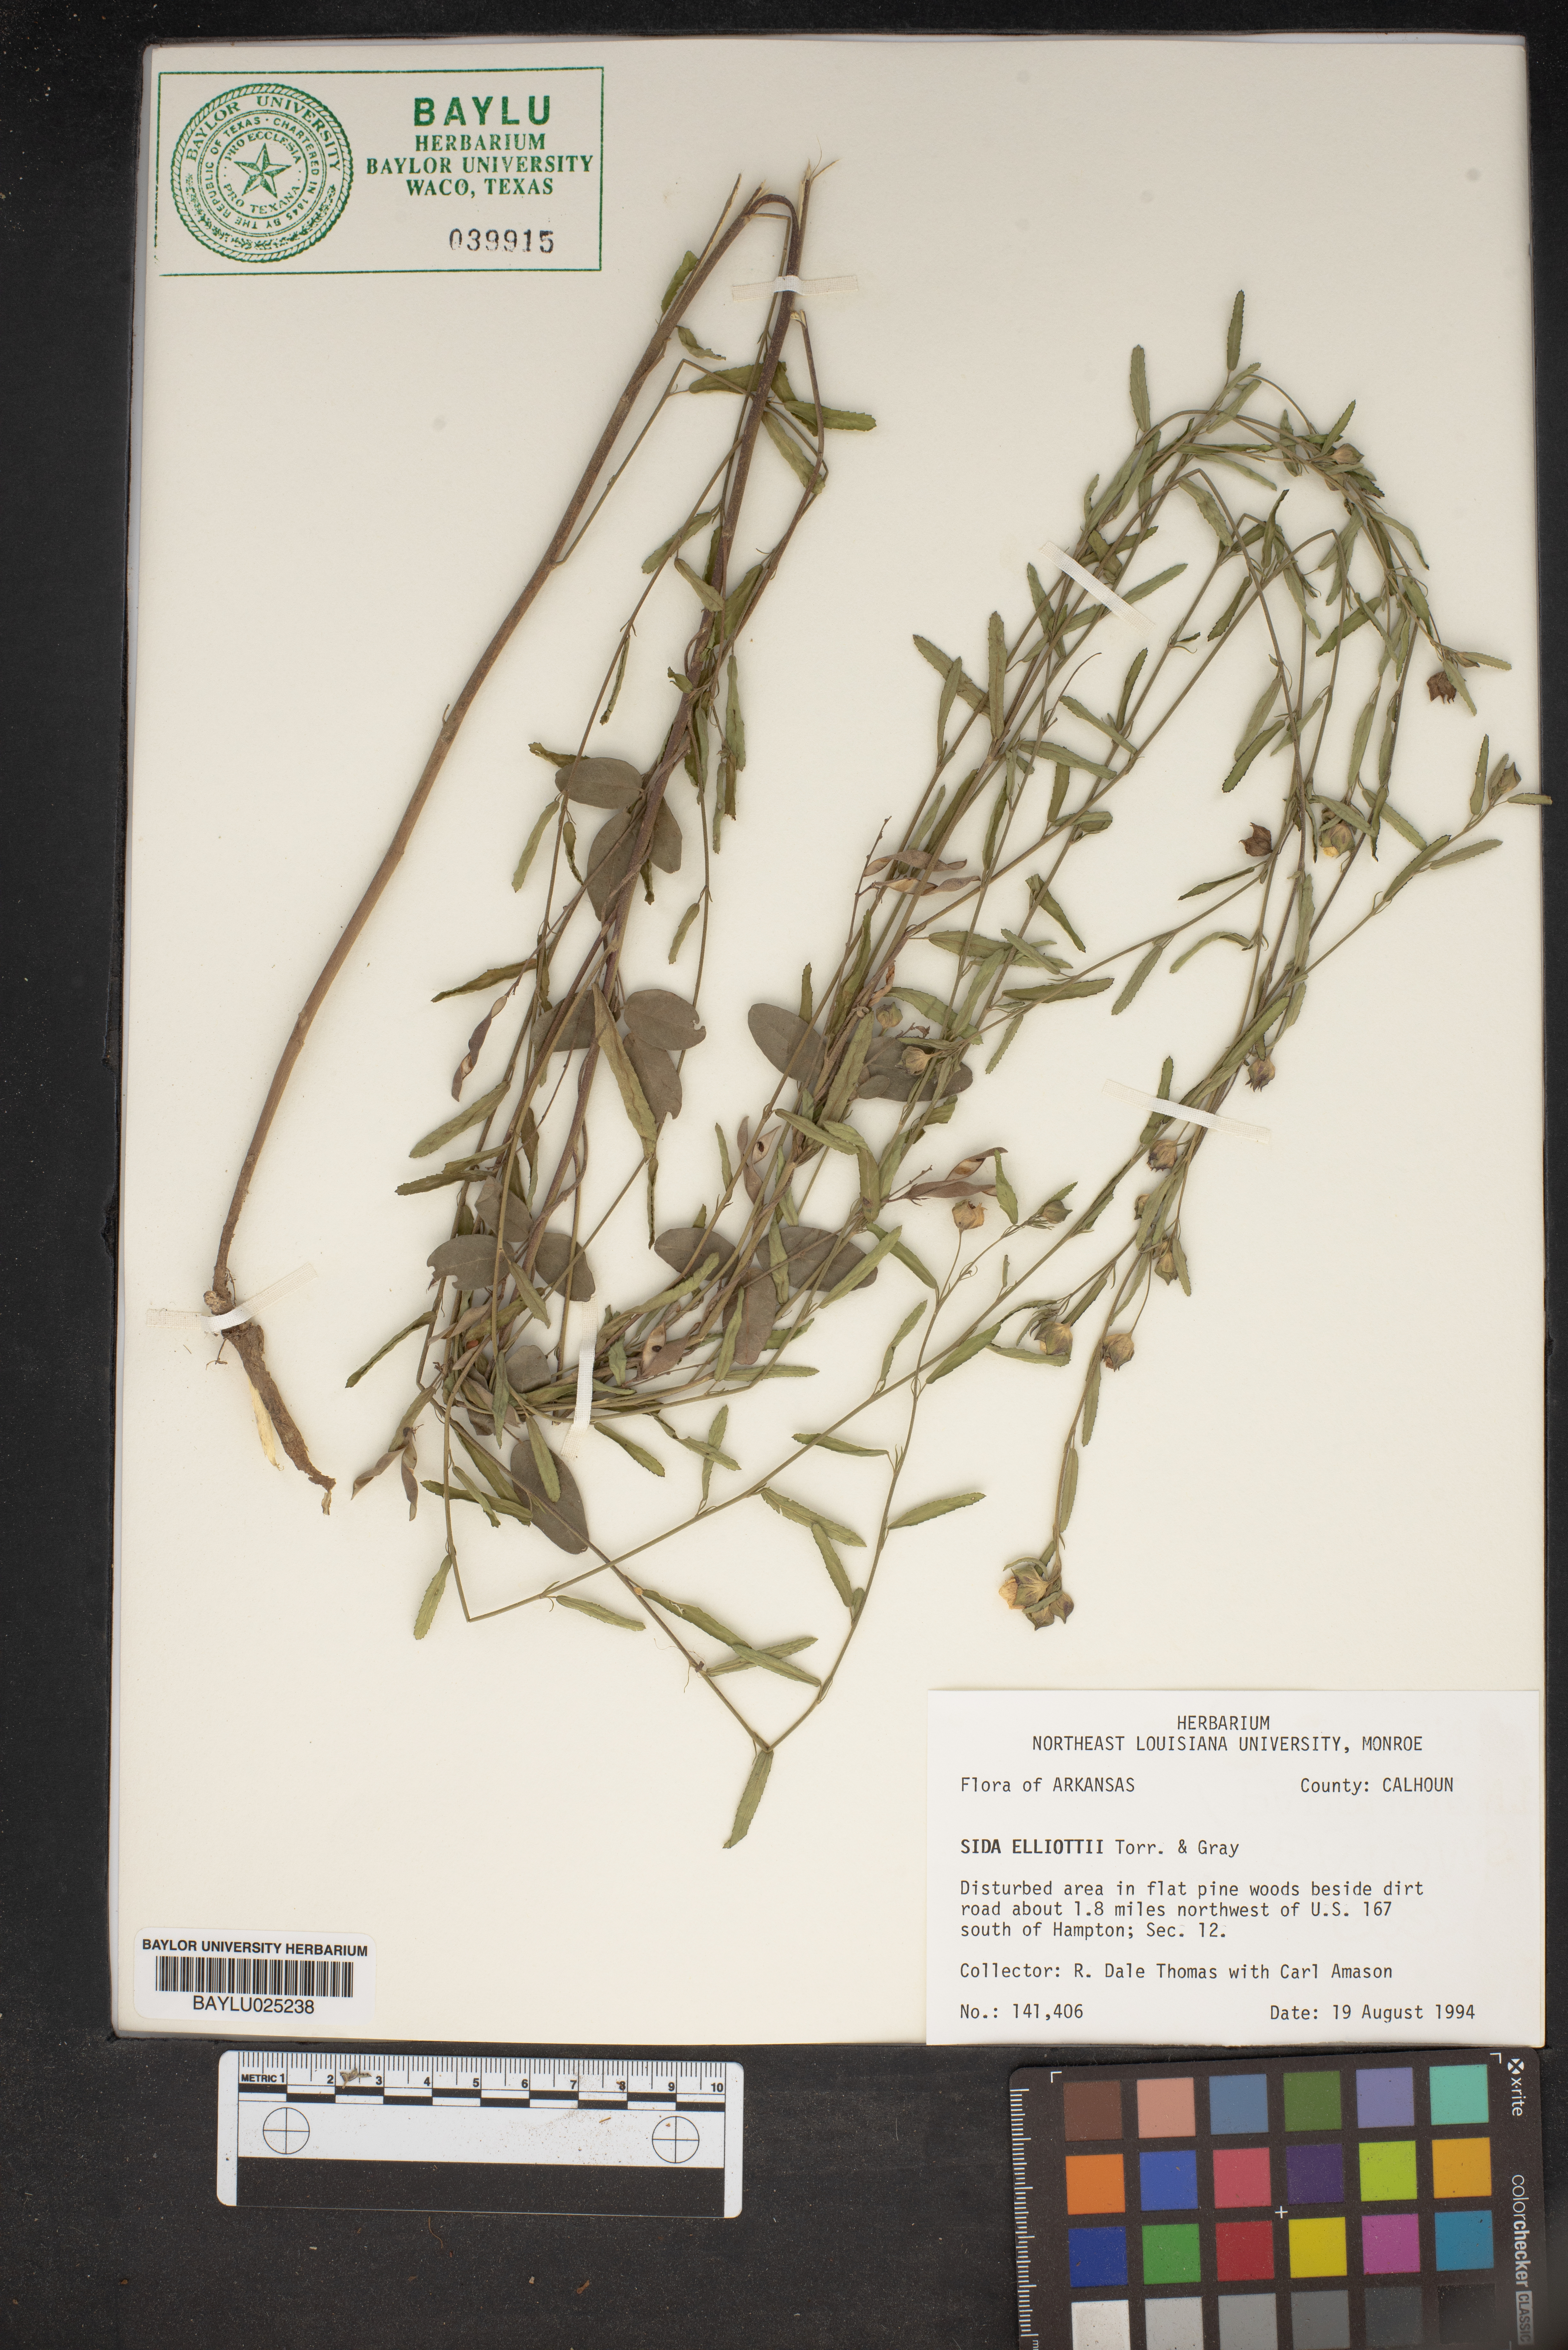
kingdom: Plantae
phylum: Tracheophyta
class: Magnoliopsida
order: Malvales
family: Malvaceae
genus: Sida
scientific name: Sida elliottii
